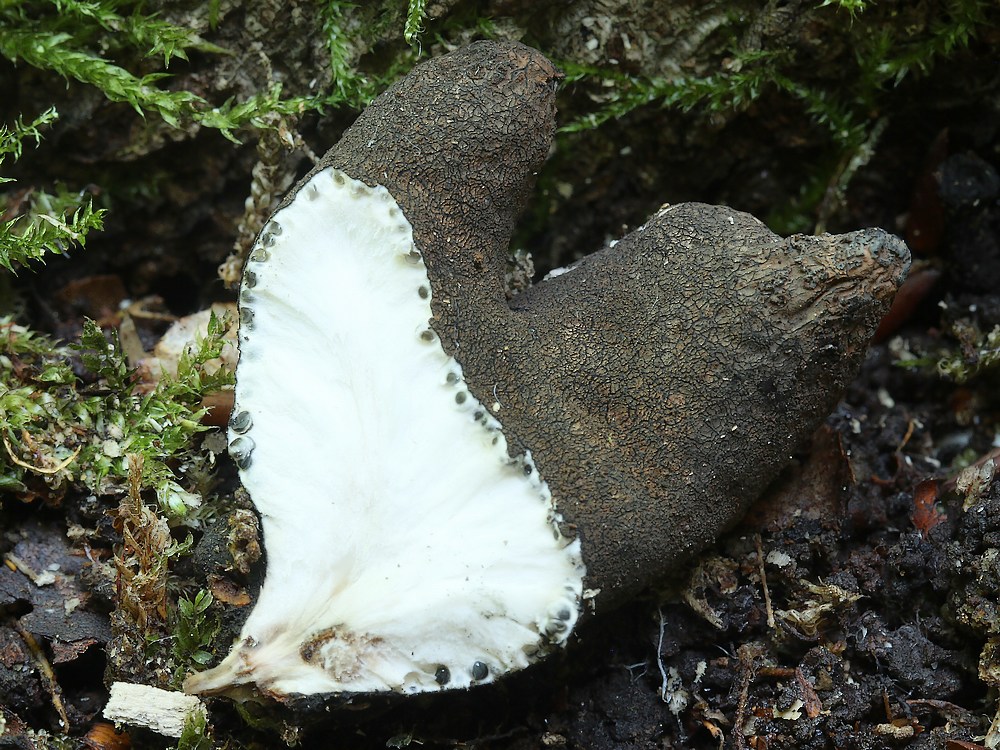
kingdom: Fungi
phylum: Ascomycota
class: Sordariomycetes
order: Xylariales
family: Xylariaceae
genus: Xylaria
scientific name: Xylaria polymorpha
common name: kølle-stødsvamp
